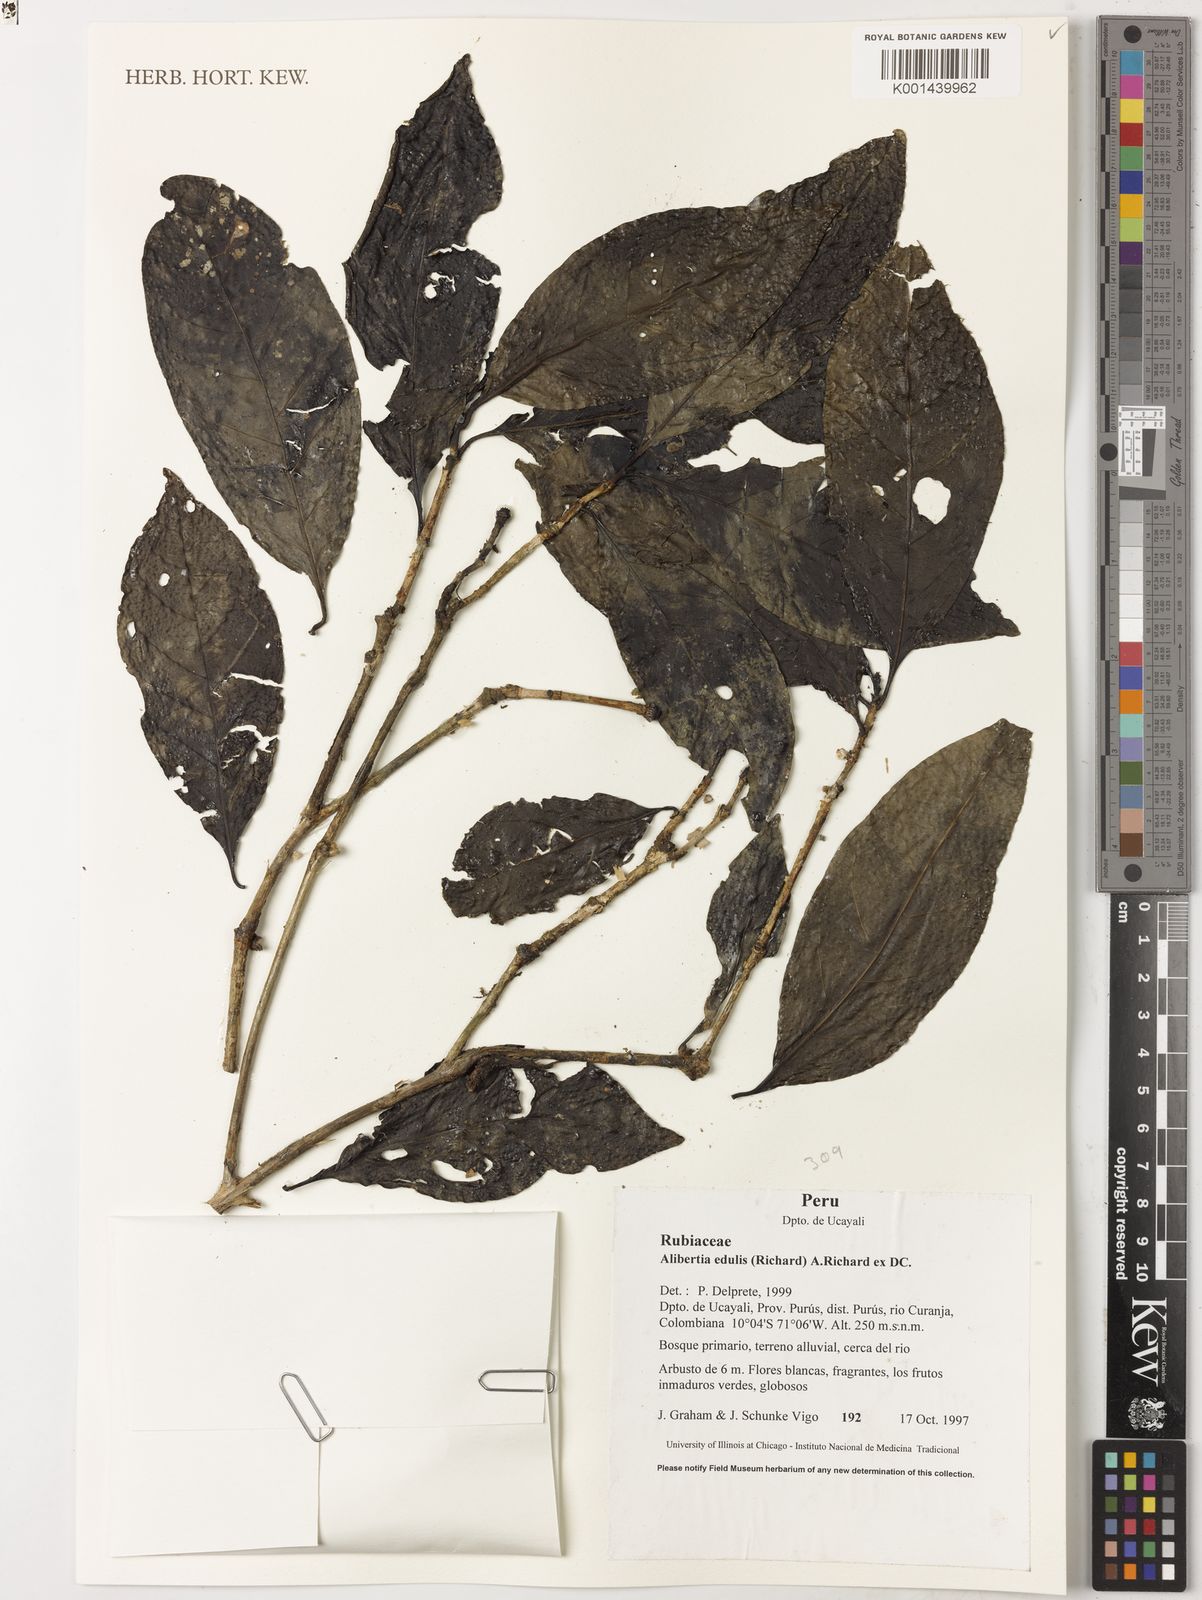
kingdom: Plantae
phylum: Tracheophyta
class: Magnoliopsida
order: Gentianales
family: Rubiaceae
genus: Alibertia
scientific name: Alibertia edulis
